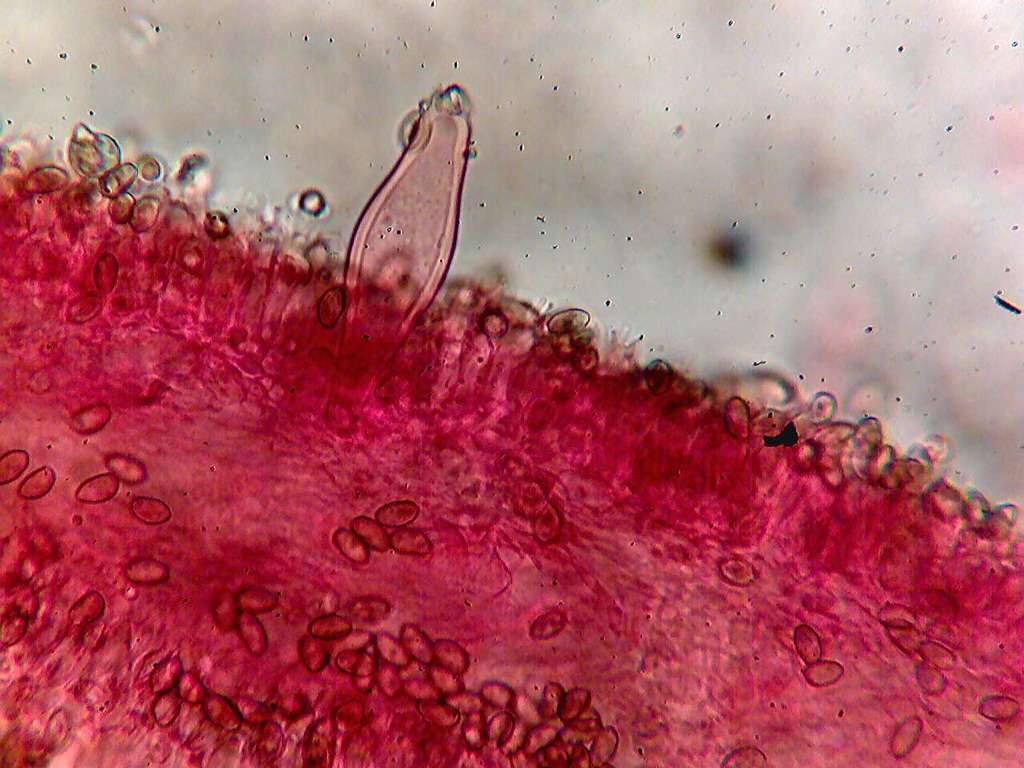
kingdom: Fungi
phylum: Basidiomycota
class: Agaricomycetes
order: Agaricales
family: Inocybaceae
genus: Inocybe
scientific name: Inocybe langei
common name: Langes trævlhat
